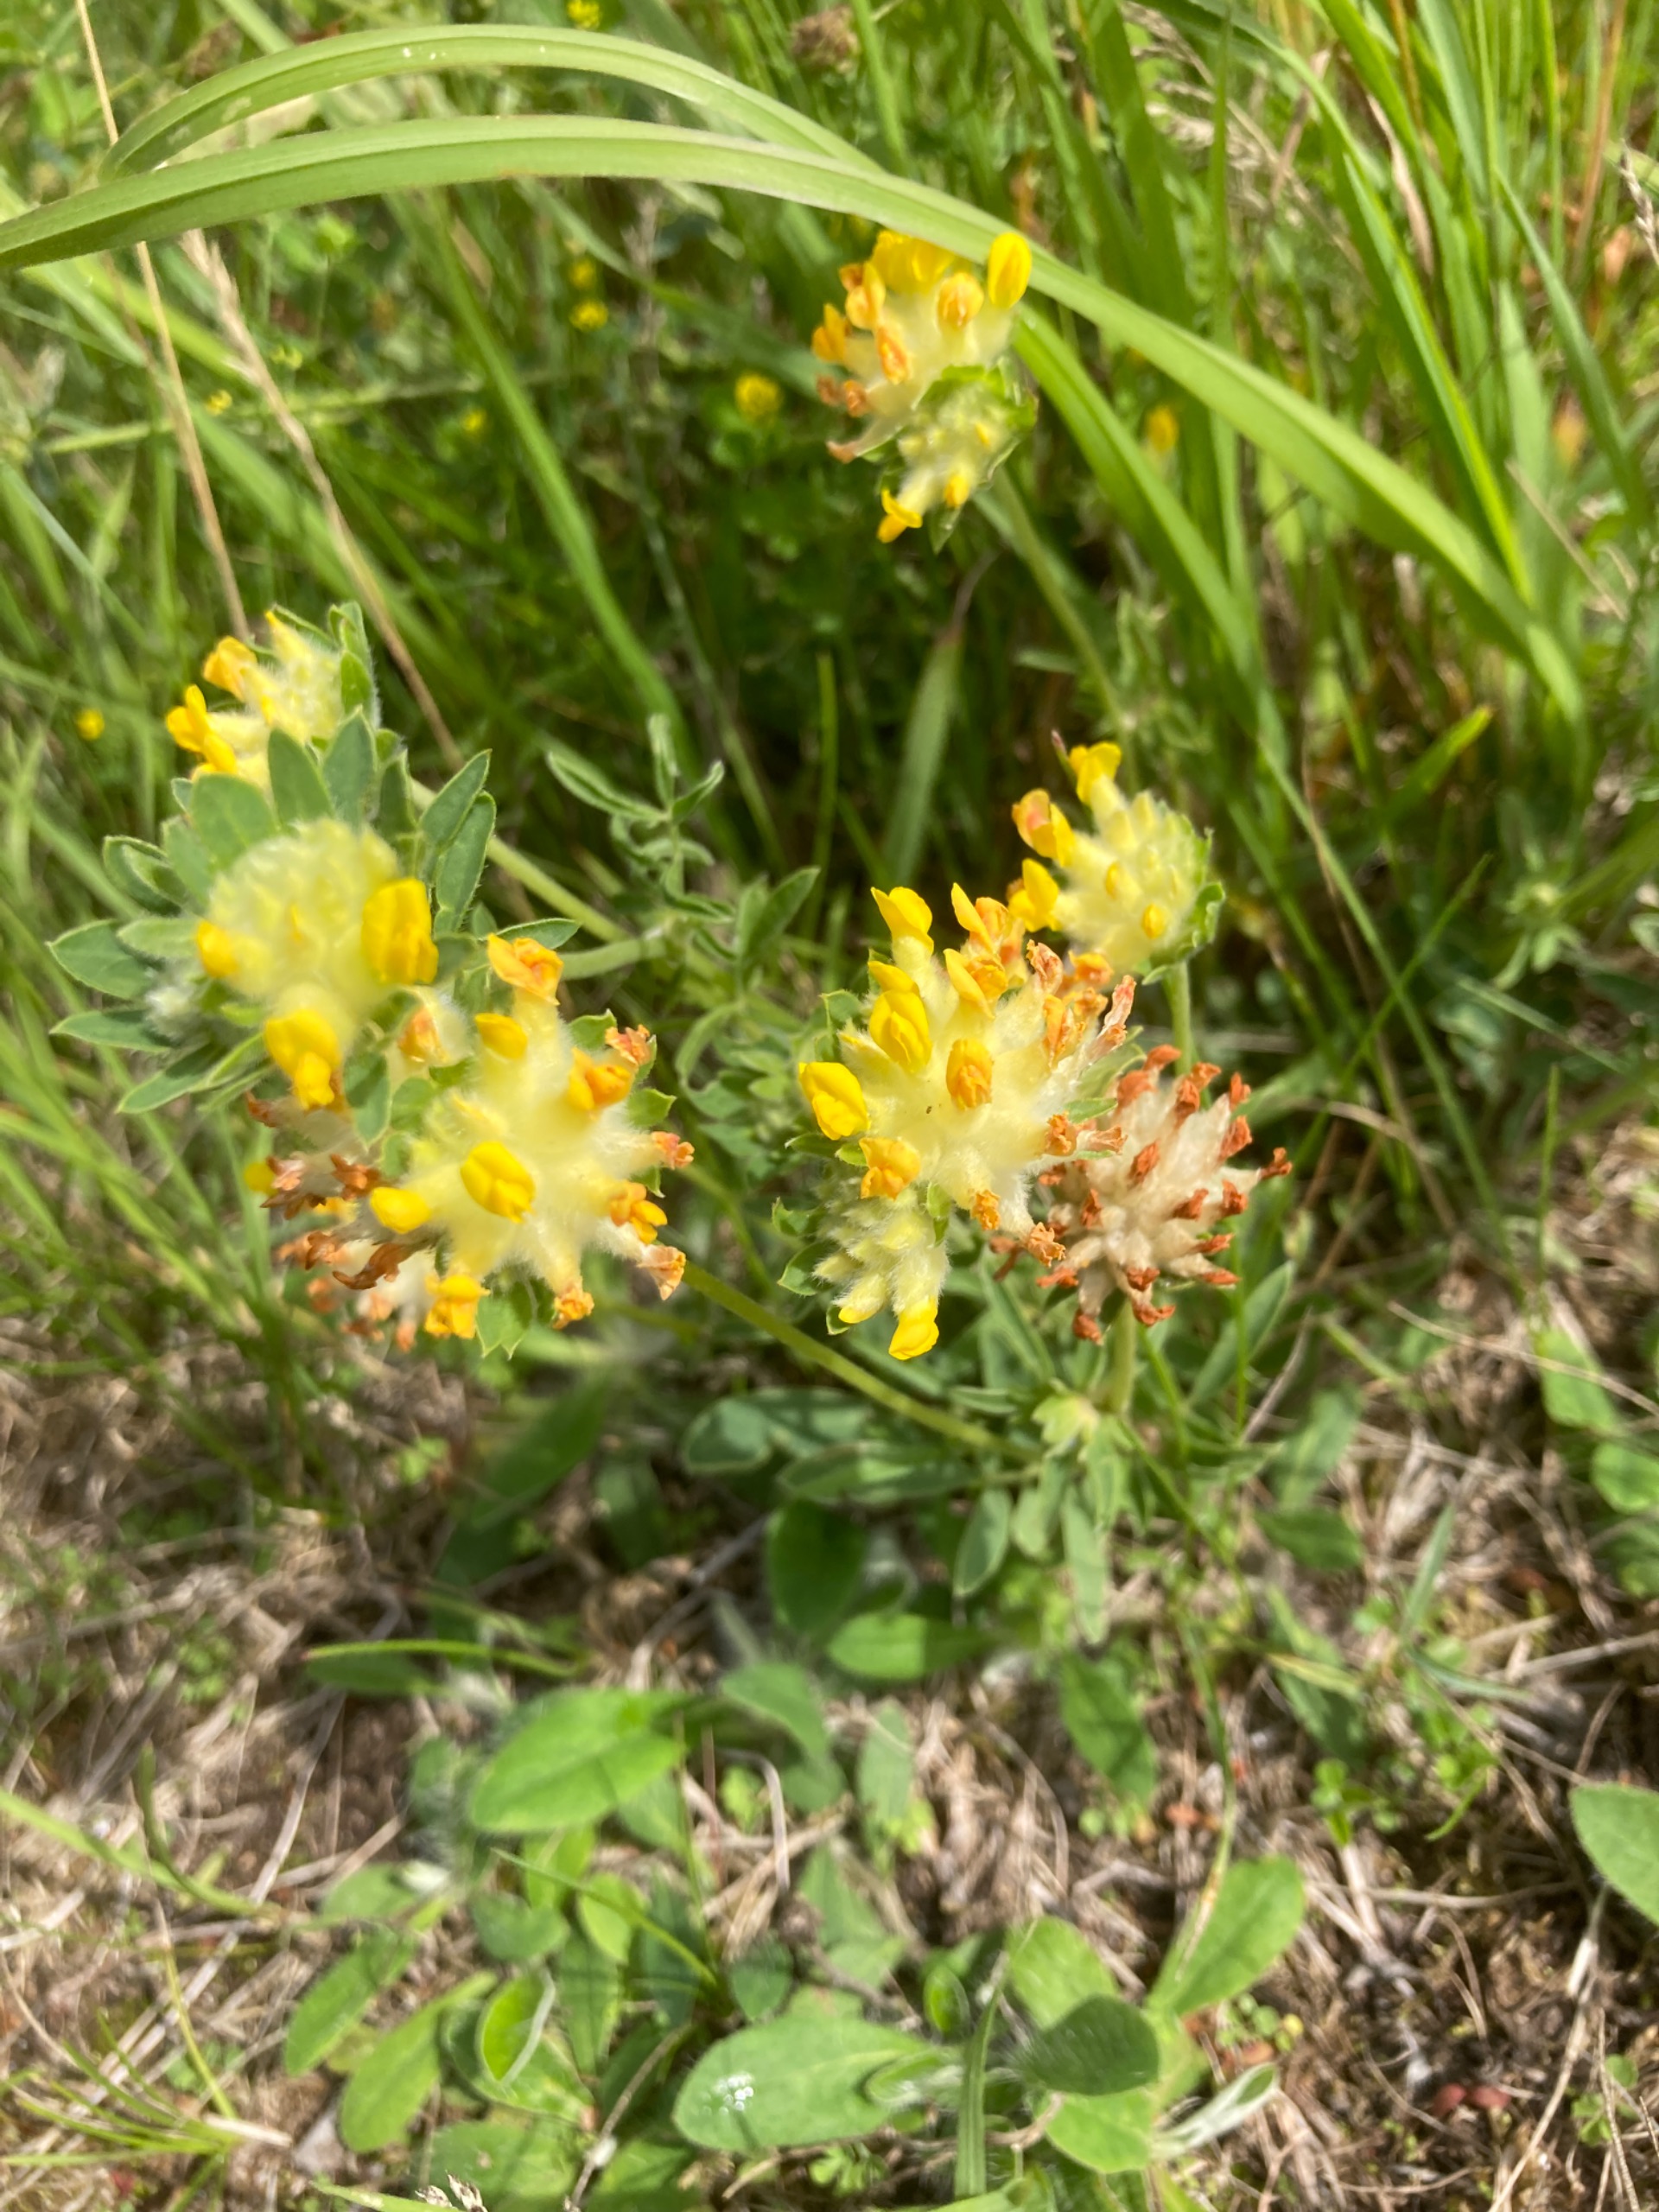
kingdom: Plantae
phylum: Tracheophyta
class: Magnoliopsida
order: Fabales
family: Fabaceae
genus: Anthyllis
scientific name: Anthyllis vulneraria
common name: Rundbælg
